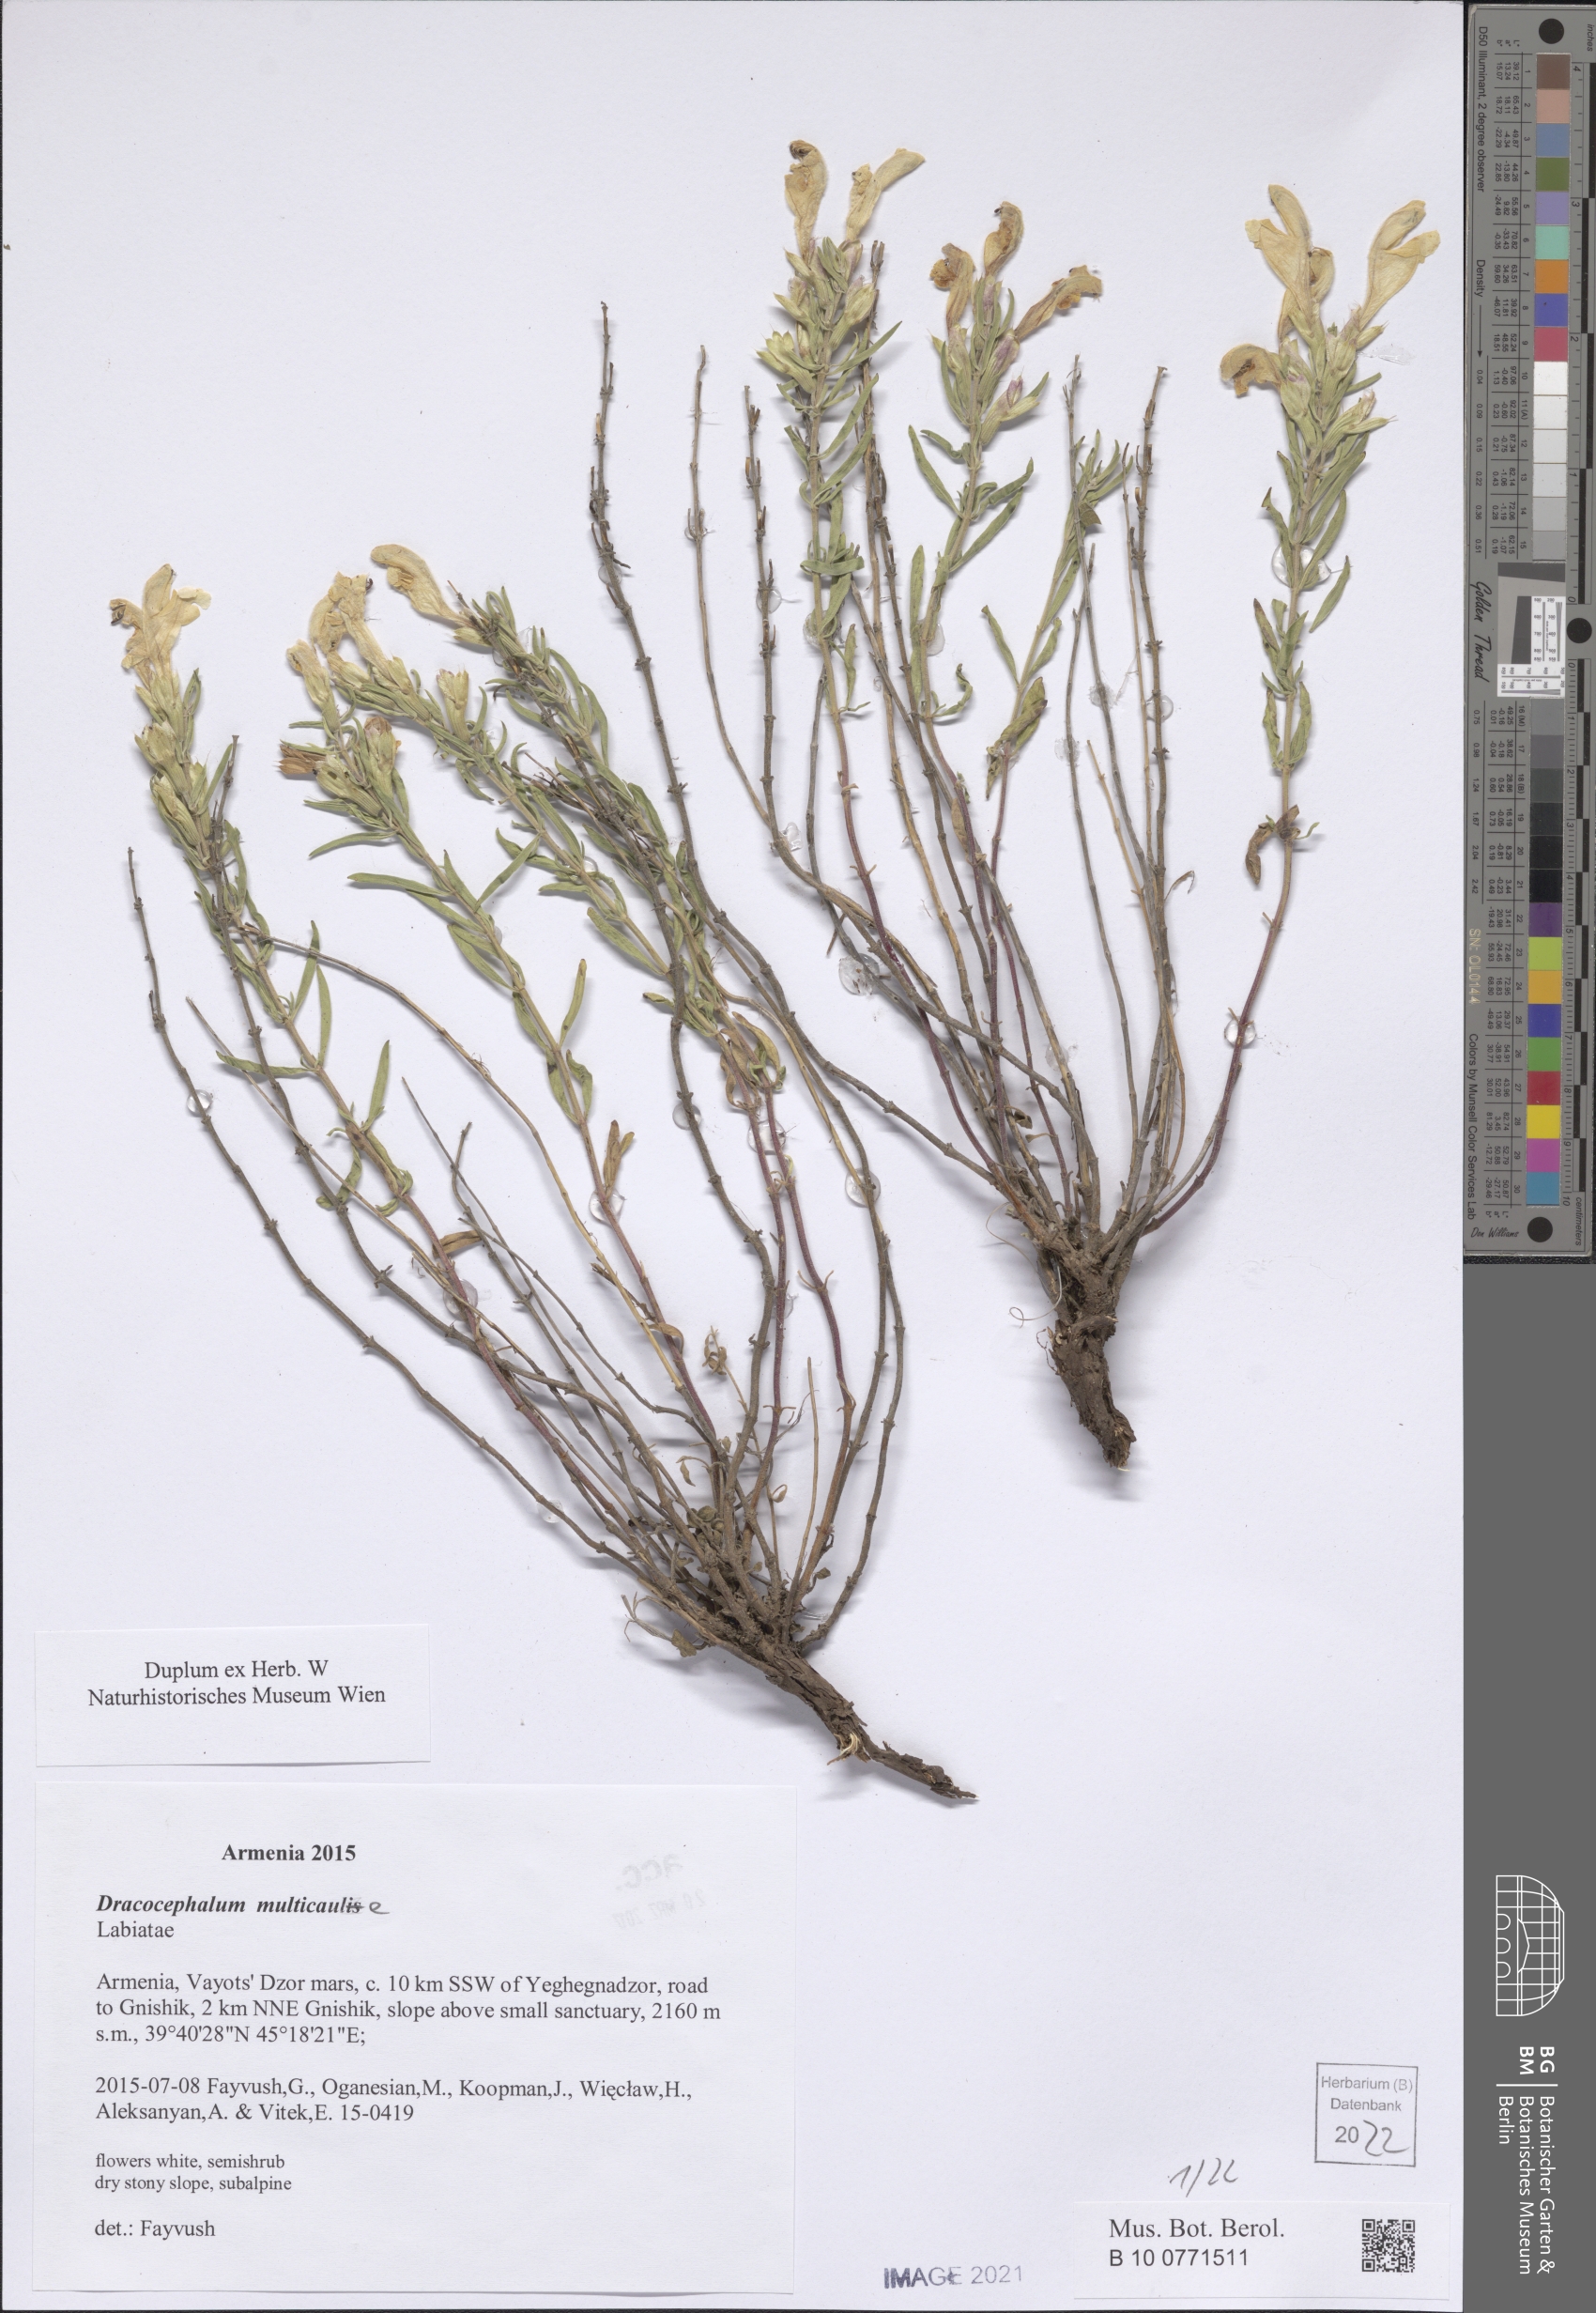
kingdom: Plantae
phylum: Tracheophyta
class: Magnoliopsida
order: Lamiales
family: Lamiaceae
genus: Dracocephalum
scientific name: Dracocephalum multicaule
